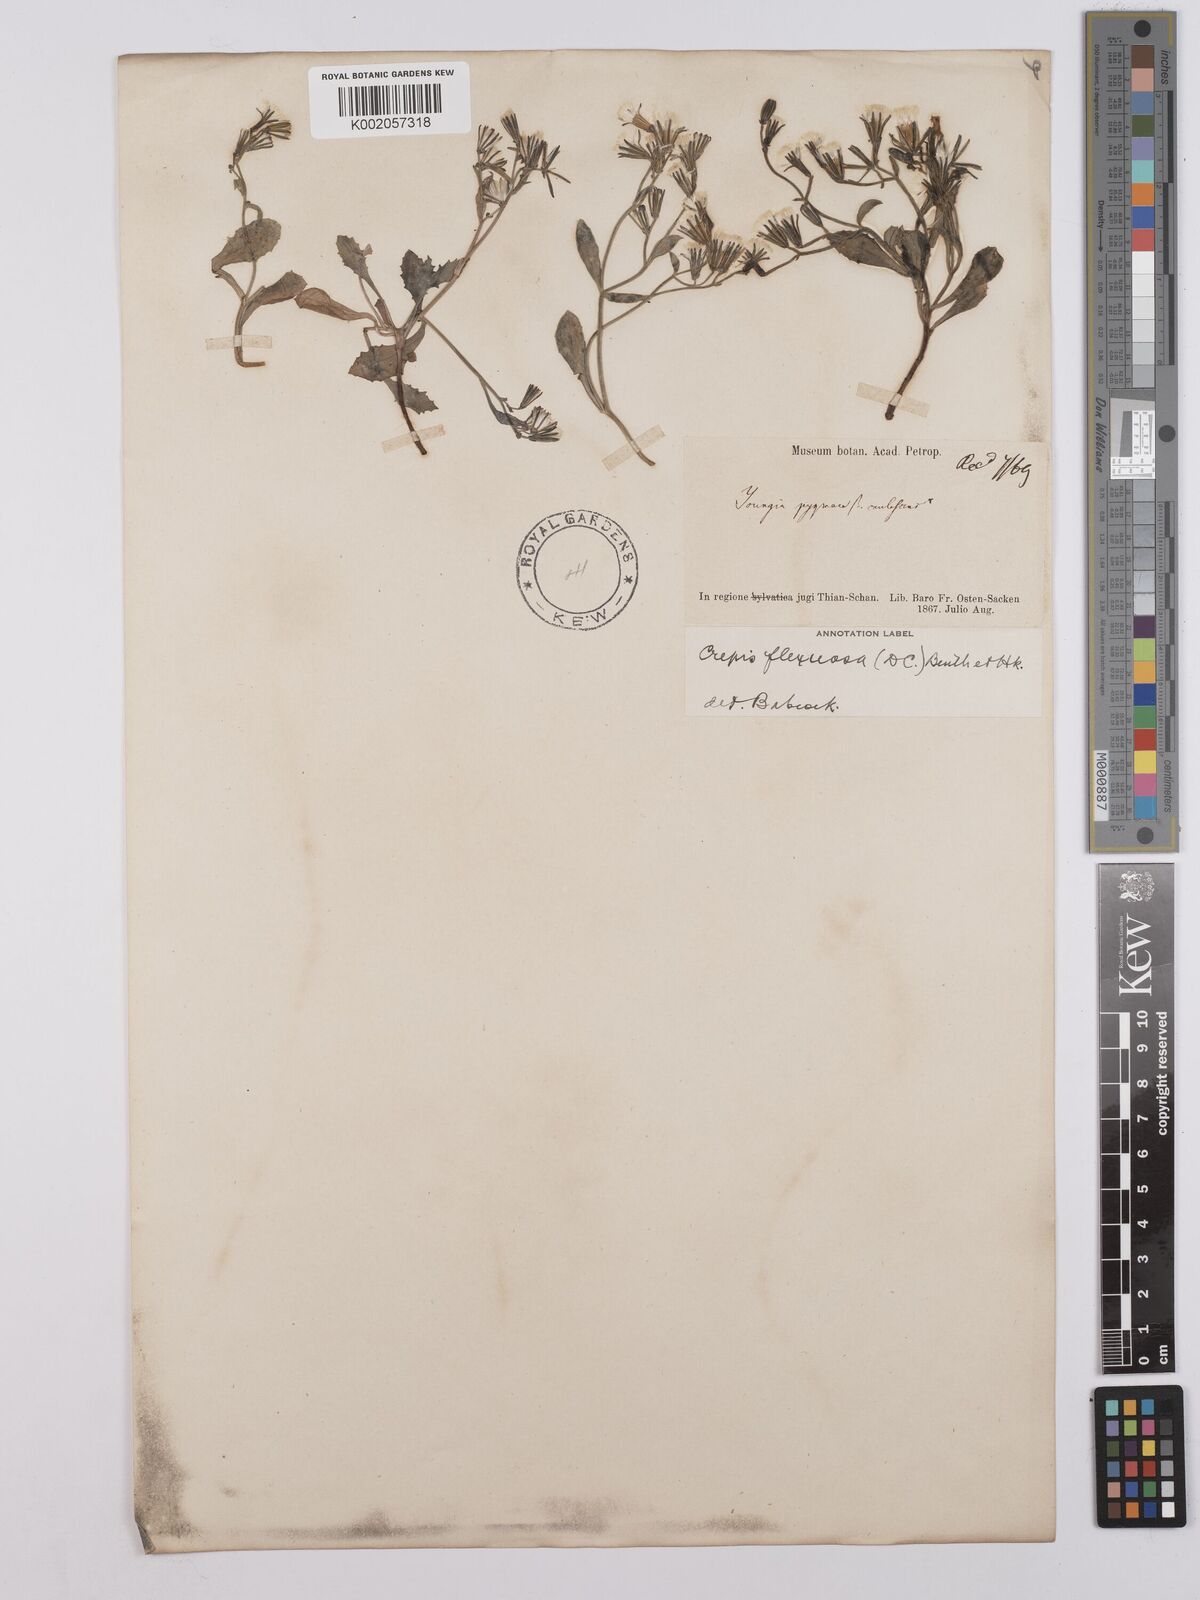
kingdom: Plantae
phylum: Tracheophyta
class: Magnoliopsida
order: Asterales
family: Asteraceae
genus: Crepis
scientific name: Crepis
